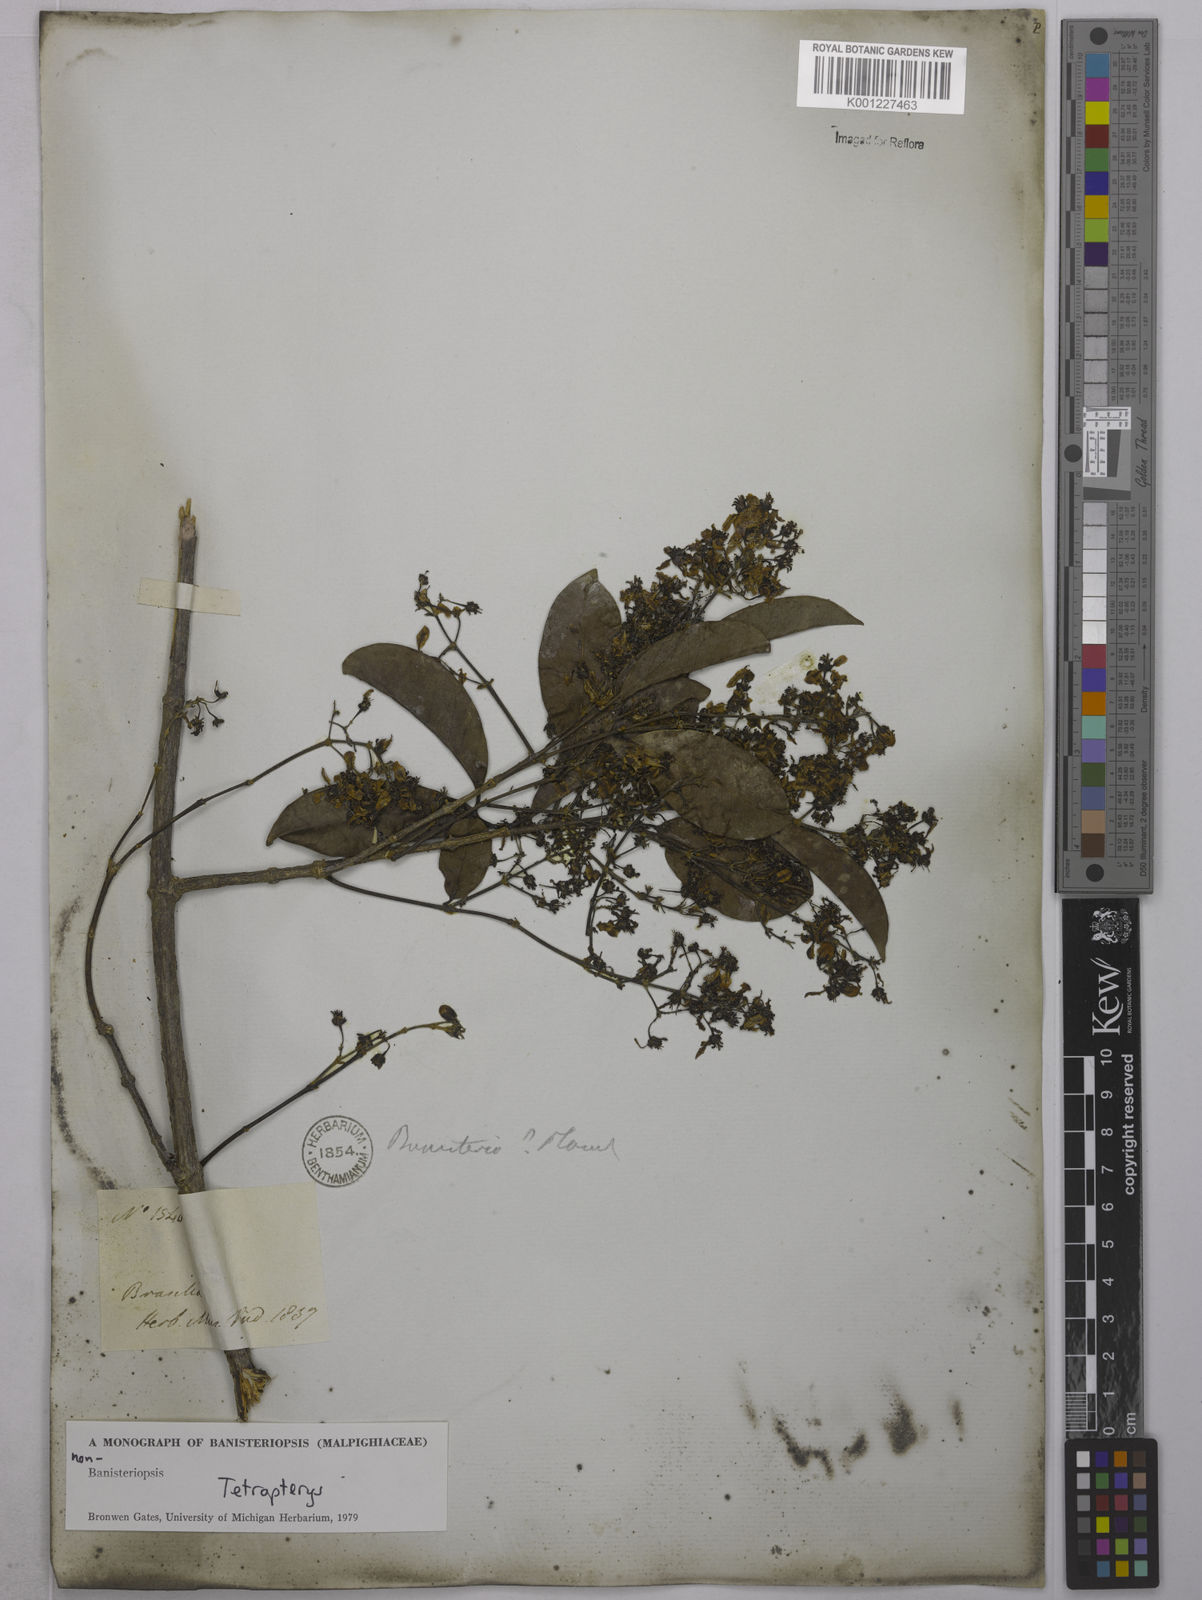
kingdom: Plantae
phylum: Tracheophyta
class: Magnoliopsida
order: Malpighiales
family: Malpighiaceae
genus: Tetrapterys
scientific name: Tetrapterys
